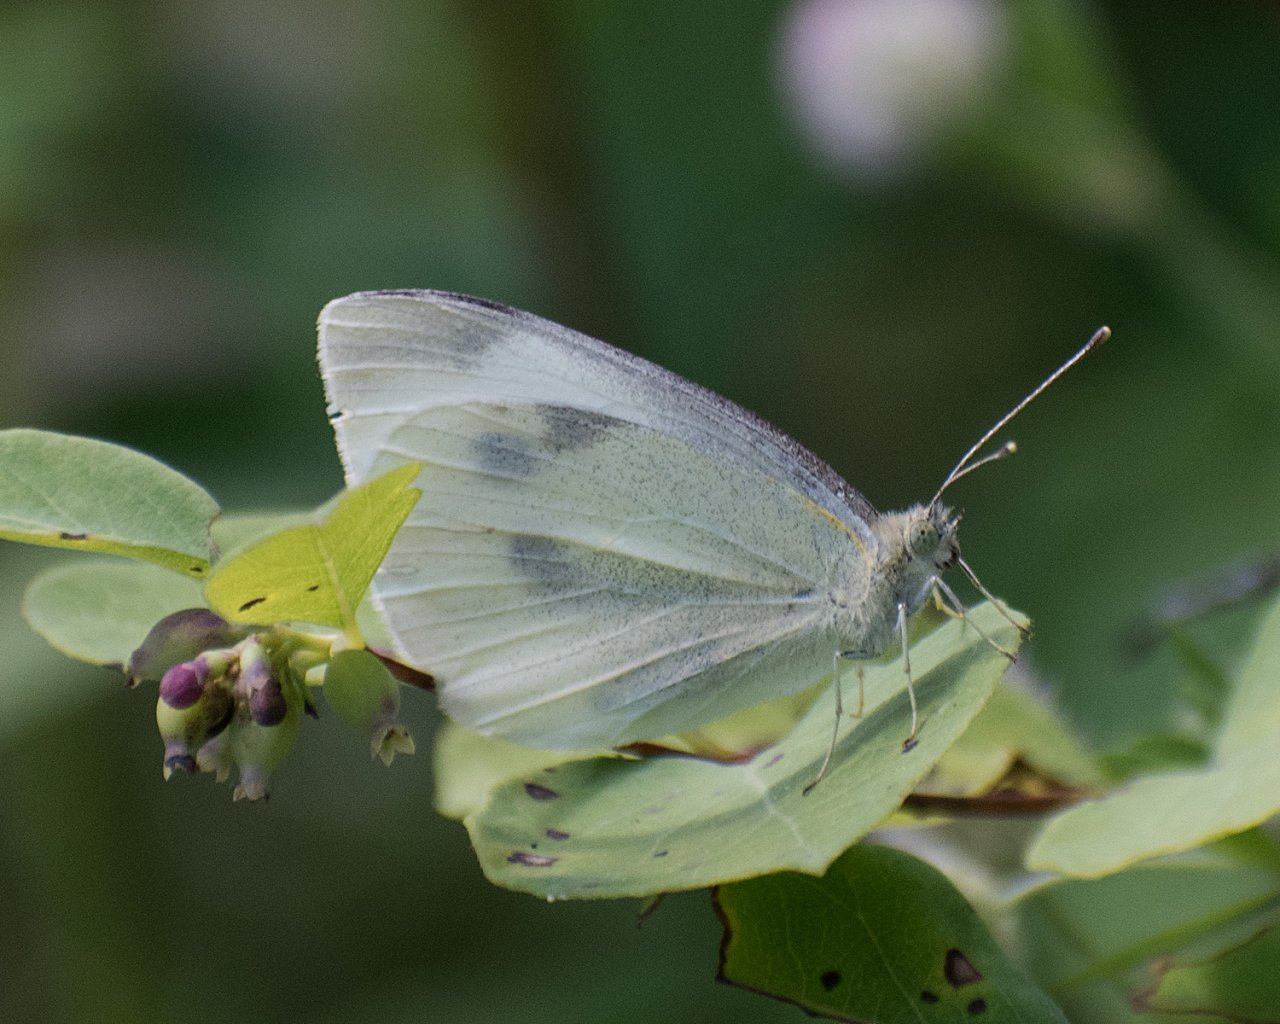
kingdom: Animalia
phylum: Arthropoda
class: Insecta
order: Lepidoptera
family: Pieridae
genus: Pieris
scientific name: Pieris rapae
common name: Cabbage White
